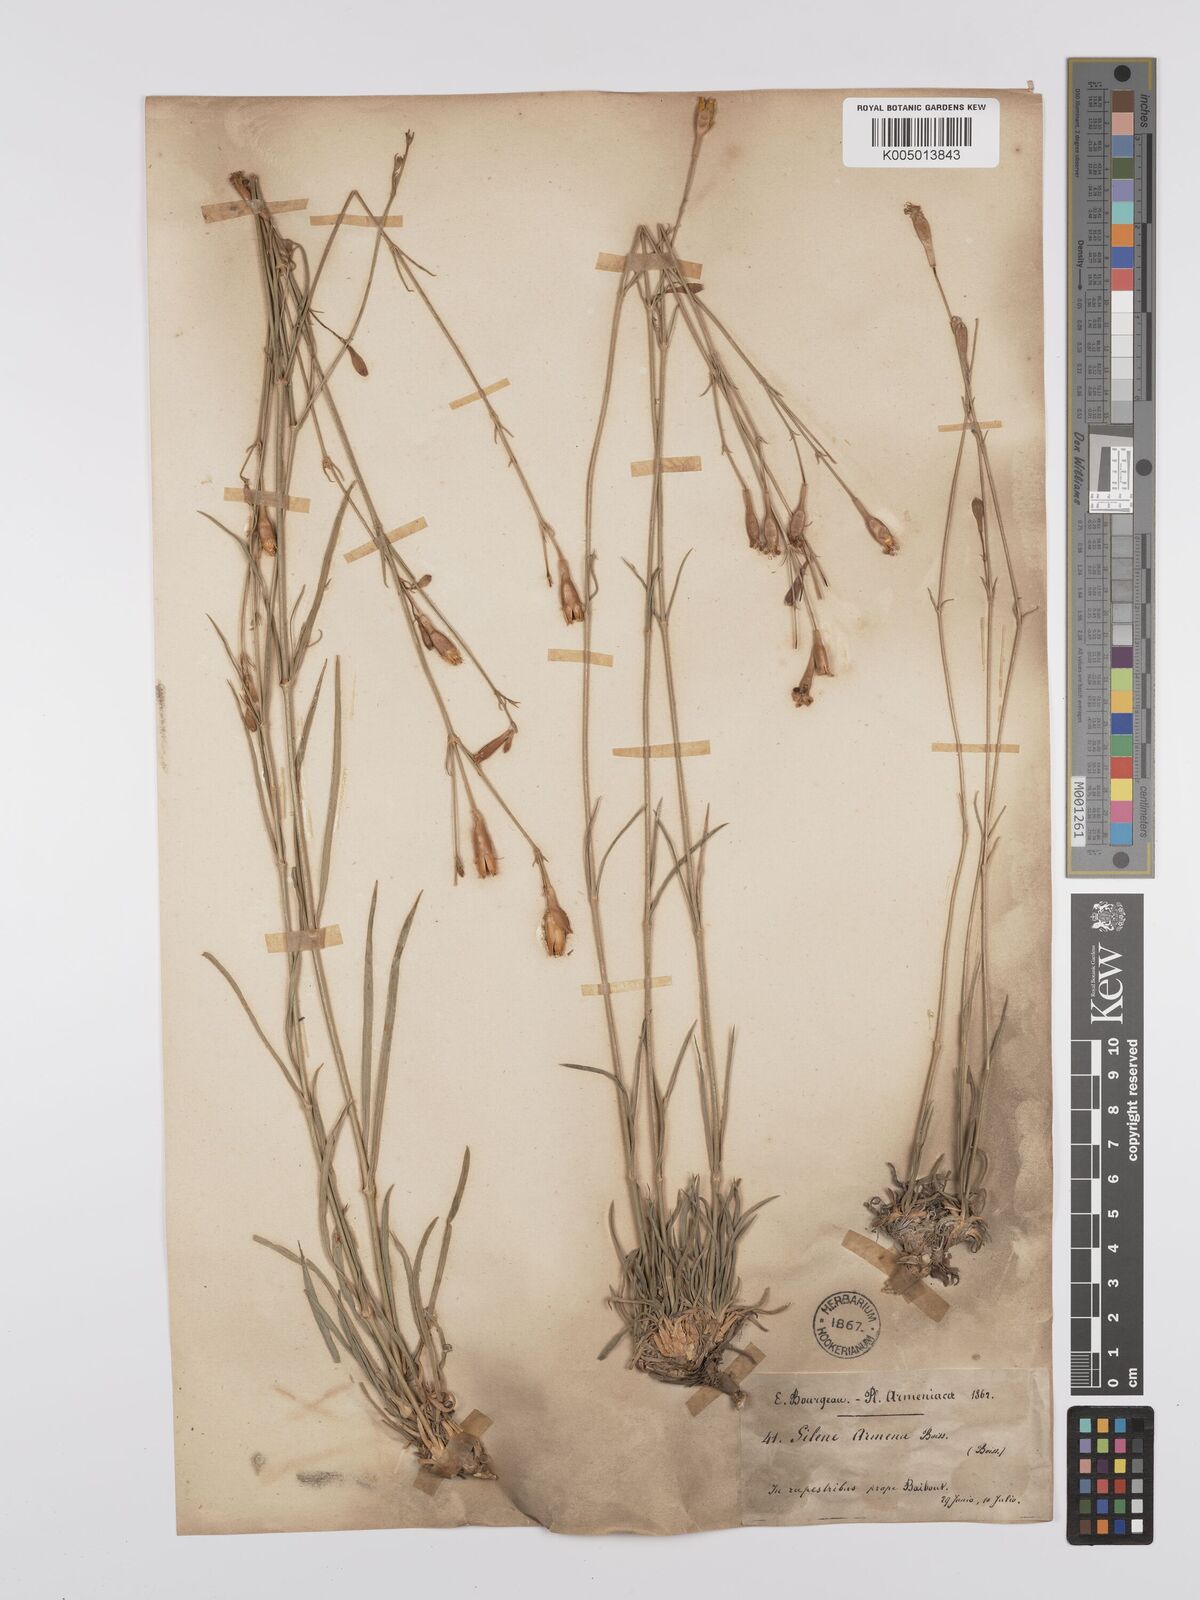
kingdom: Plantae
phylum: Tracheophyta
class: Magnoliopsida
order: Caryophyllales
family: Caryophyllaceae
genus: Silene
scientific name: Silene
